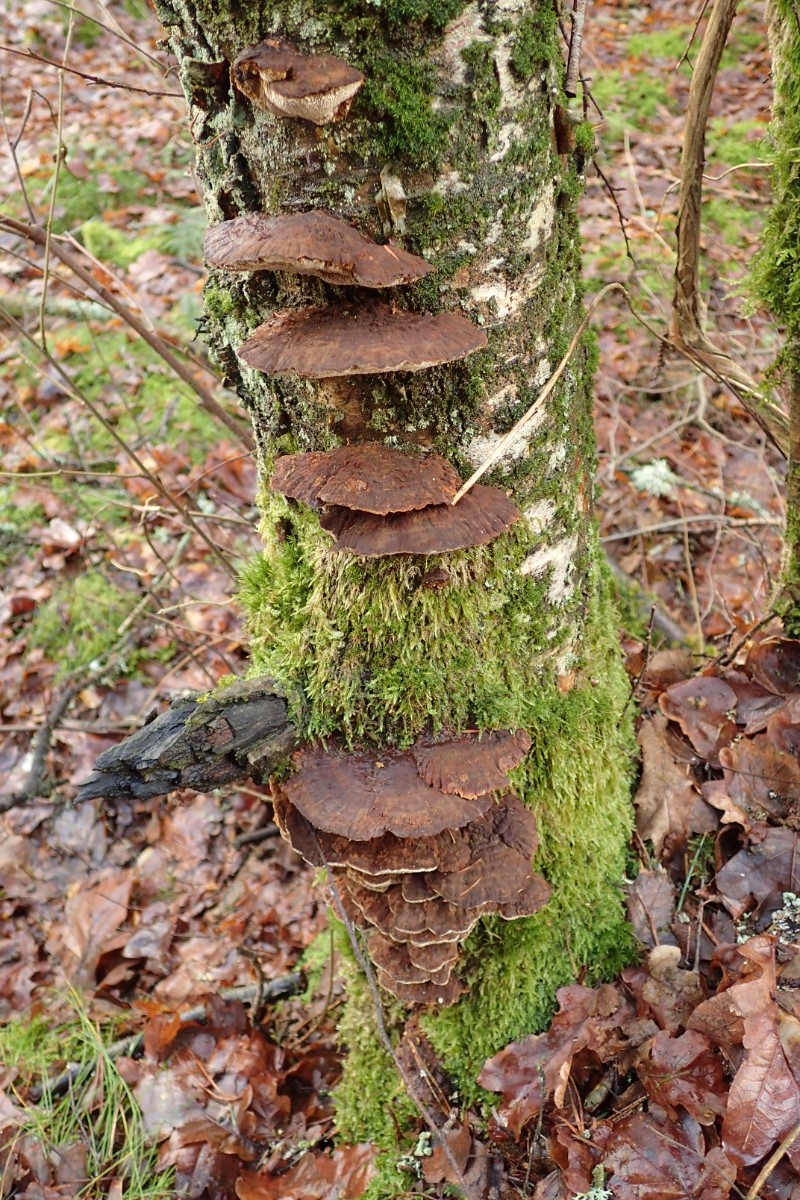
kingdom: Fungi
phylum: Basidiomycota
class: Agaricomycetes
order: Hymenochaetales
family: Hymenochaetaceae
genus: Xanthoporia
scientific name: Xanthoporia radiata
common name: elle-spejlporesvamp
